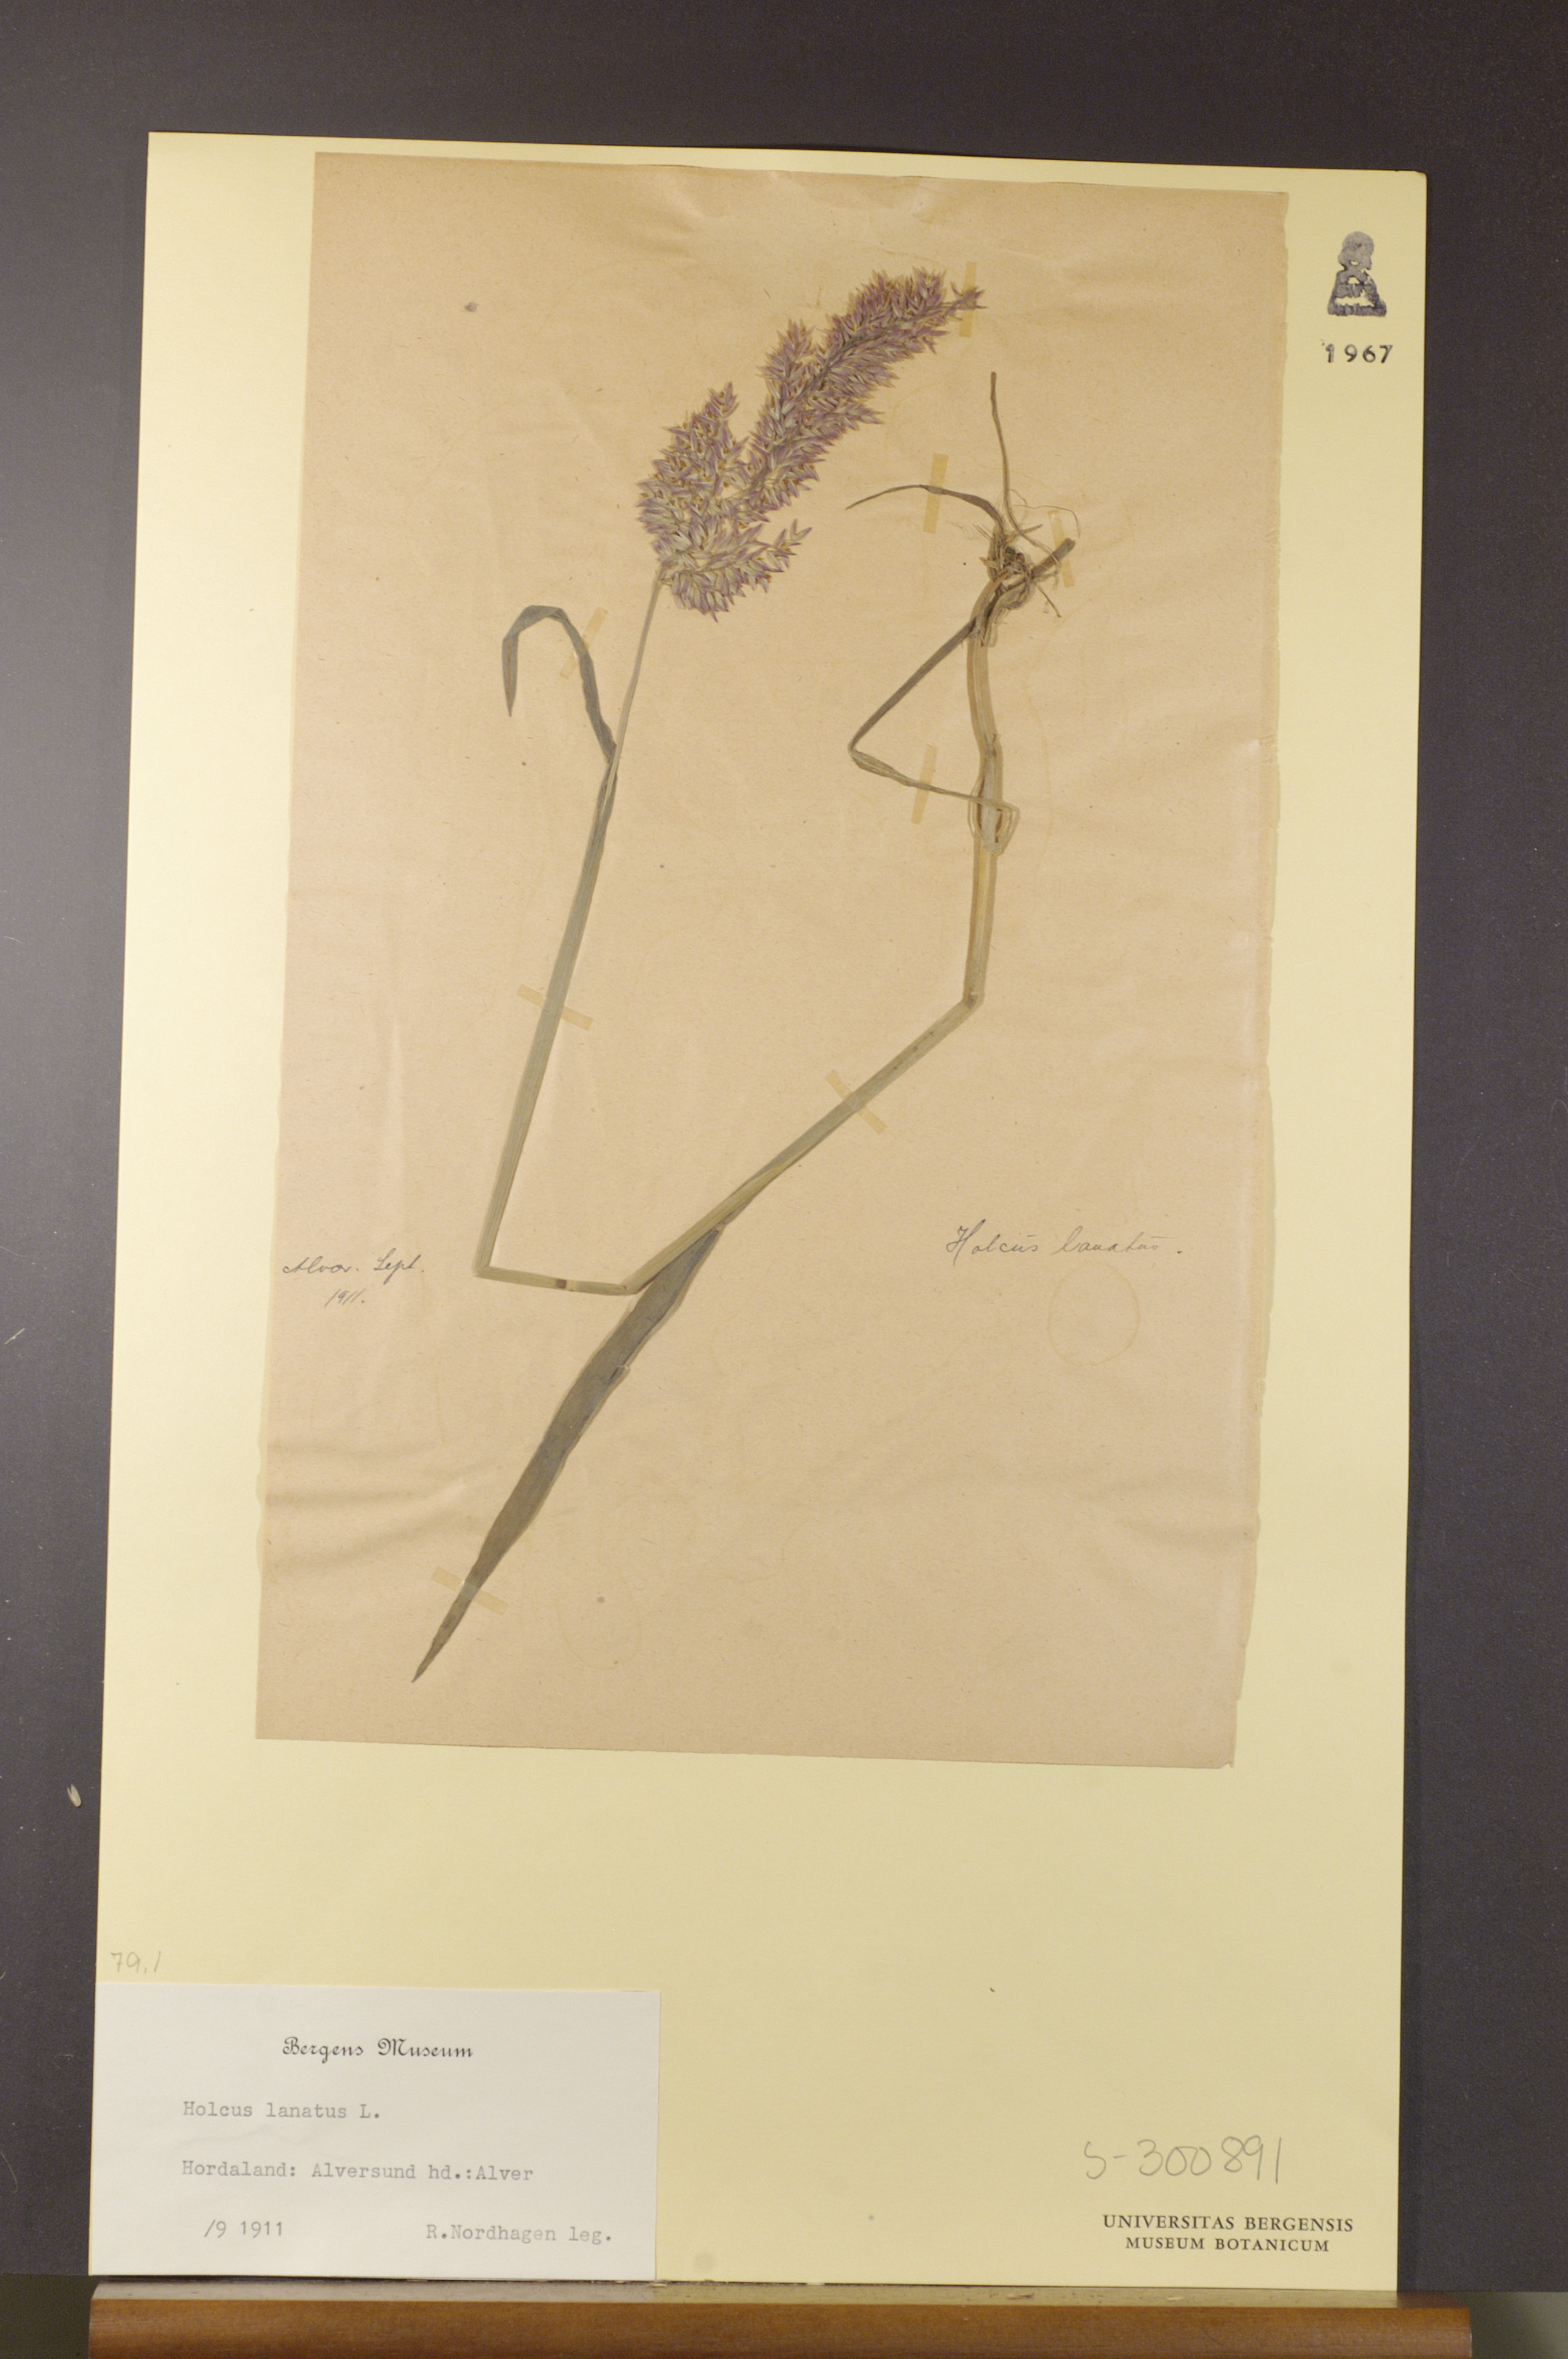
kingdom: Plantae
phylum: Tracheophyta
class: Liliopsida
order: Poales
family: Poaceae
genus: Holcus
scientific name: Holcus lanatus
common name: Yorkshire-fog
